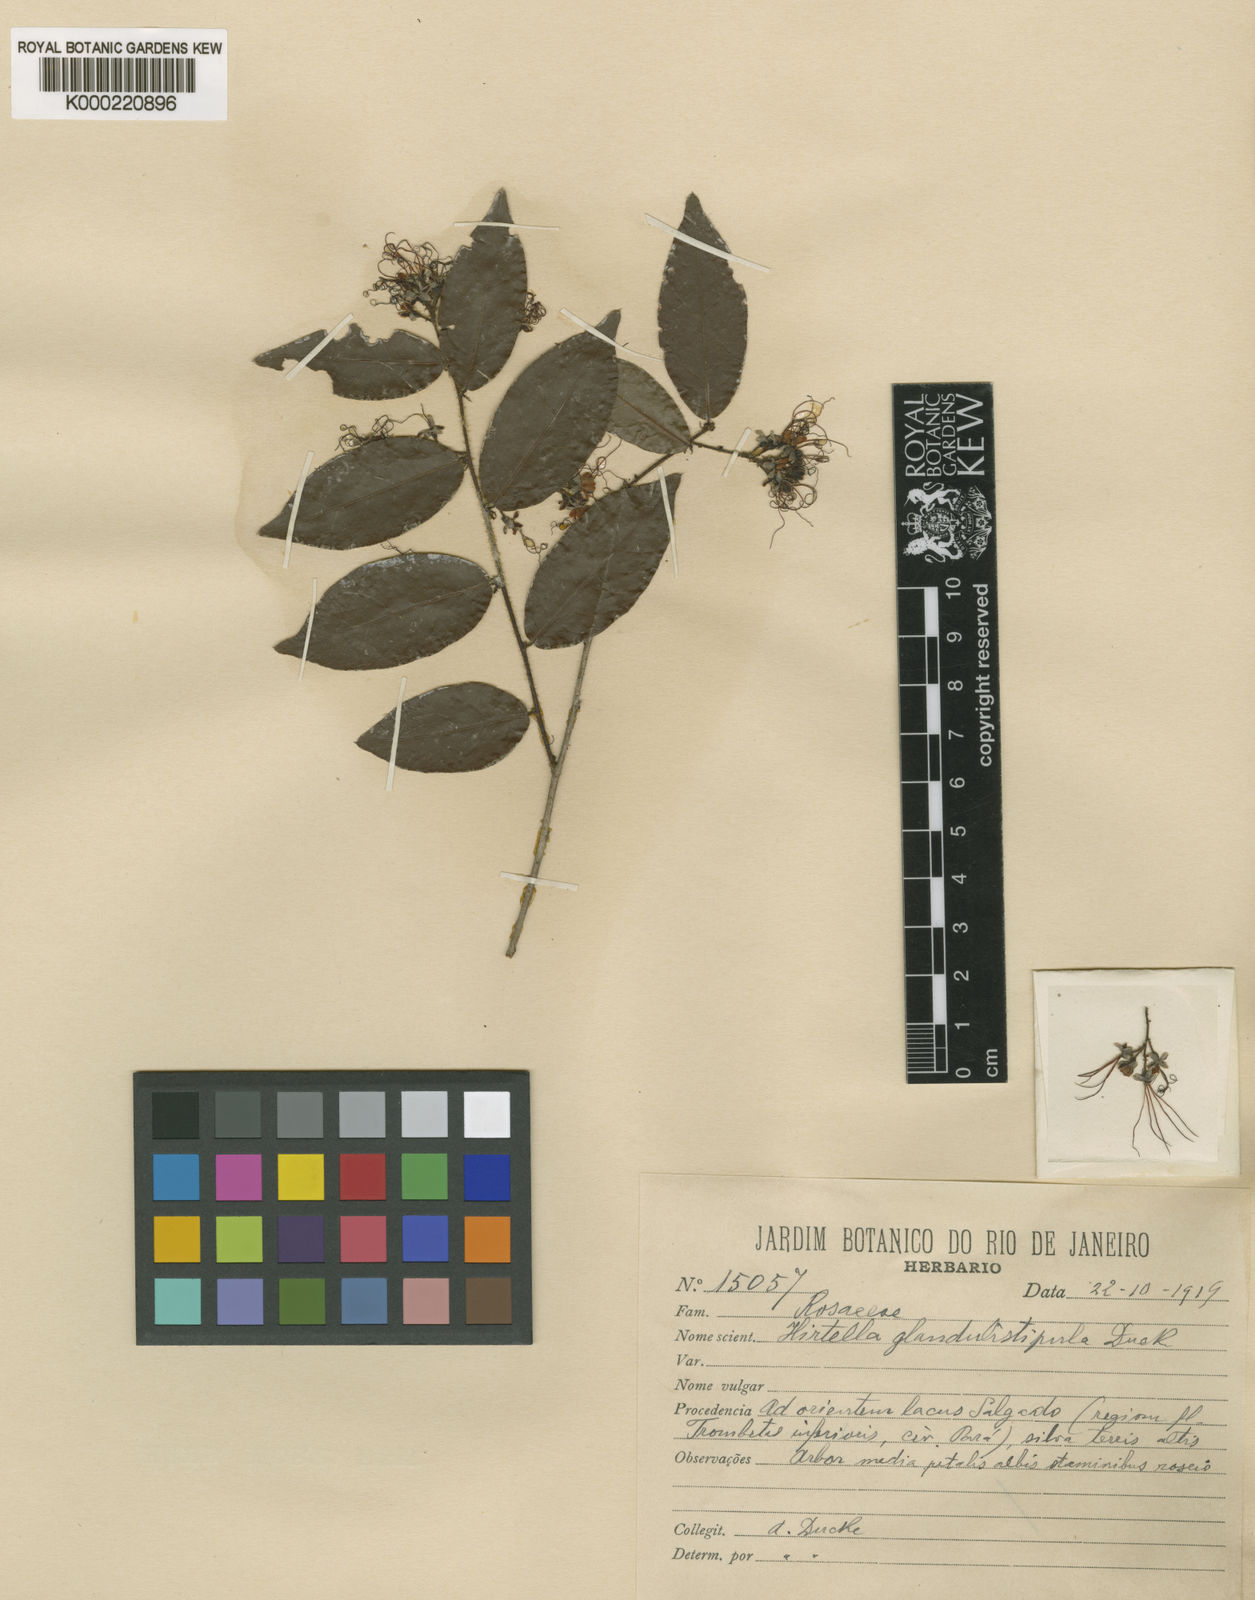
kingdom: Plantae
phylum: Tracheophyta
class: Magnoliopsida
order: Malpighiales
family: Chrysobalanaceae
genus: Hirtella
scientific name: Hirtella
